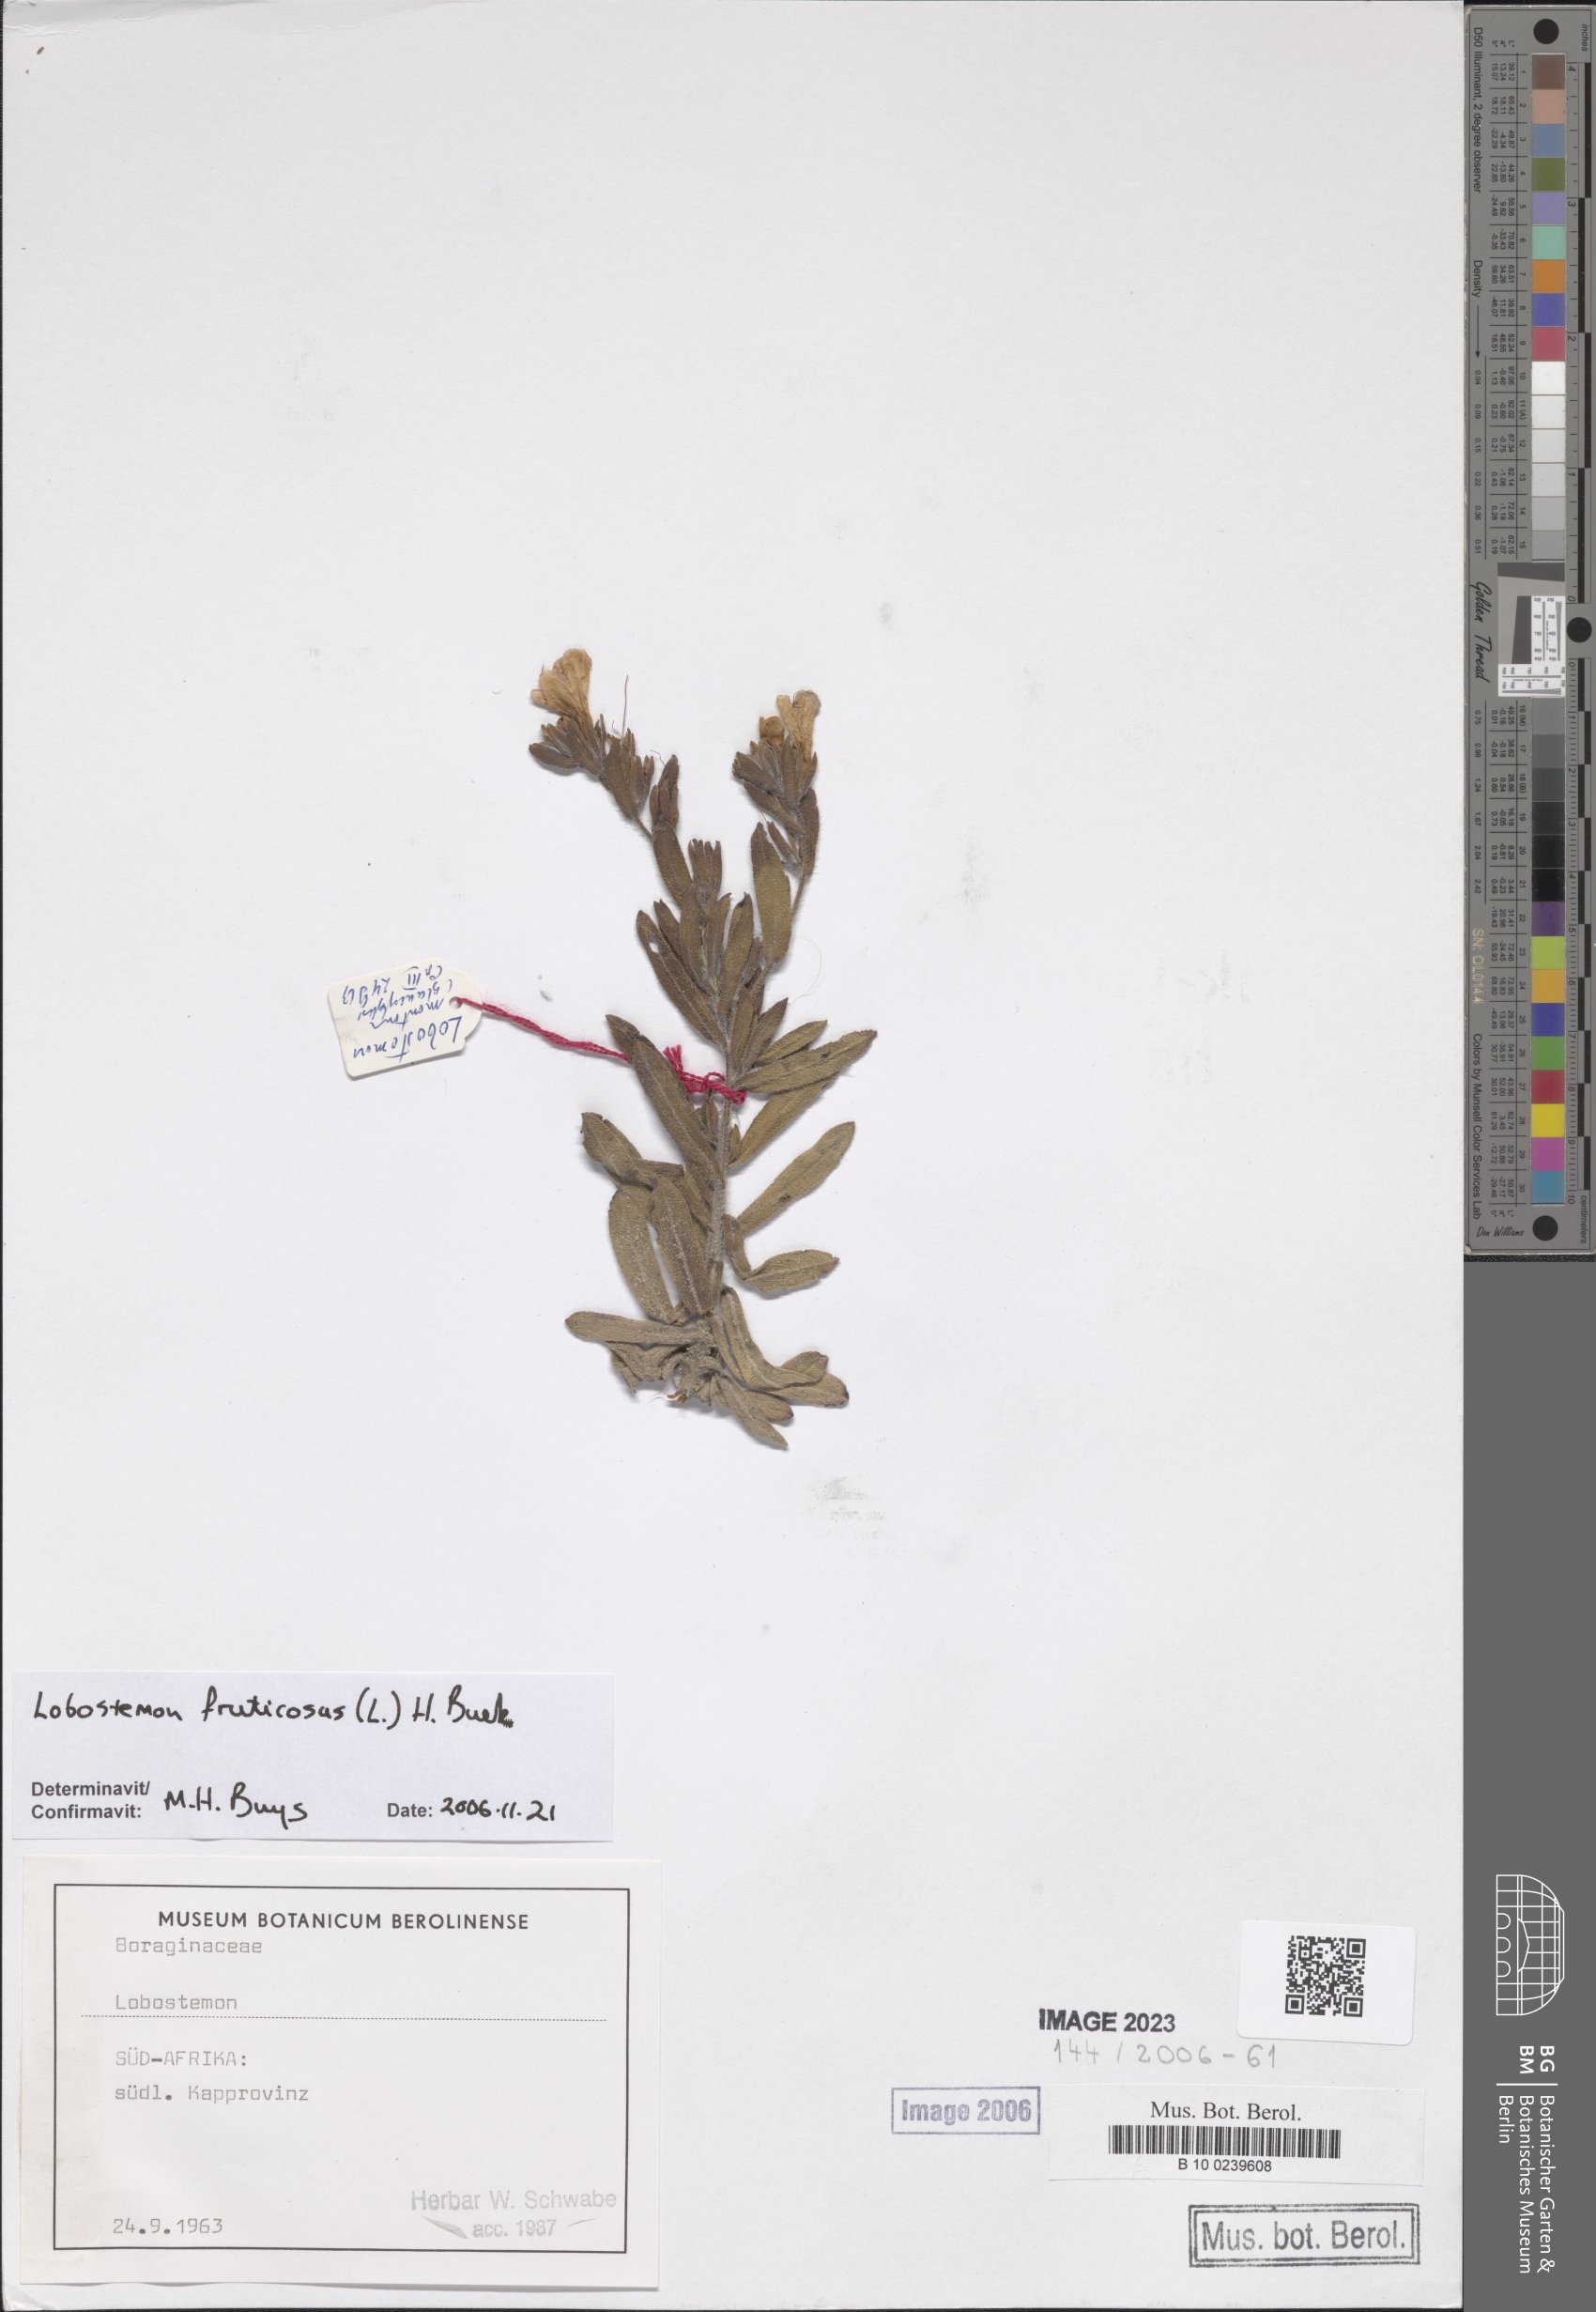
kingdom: Plantae
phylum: Tracheophyta
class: Magnoliopsida
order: Boraginales
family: Boraginaceae
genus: Lobostemon
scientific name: Lobostemon
